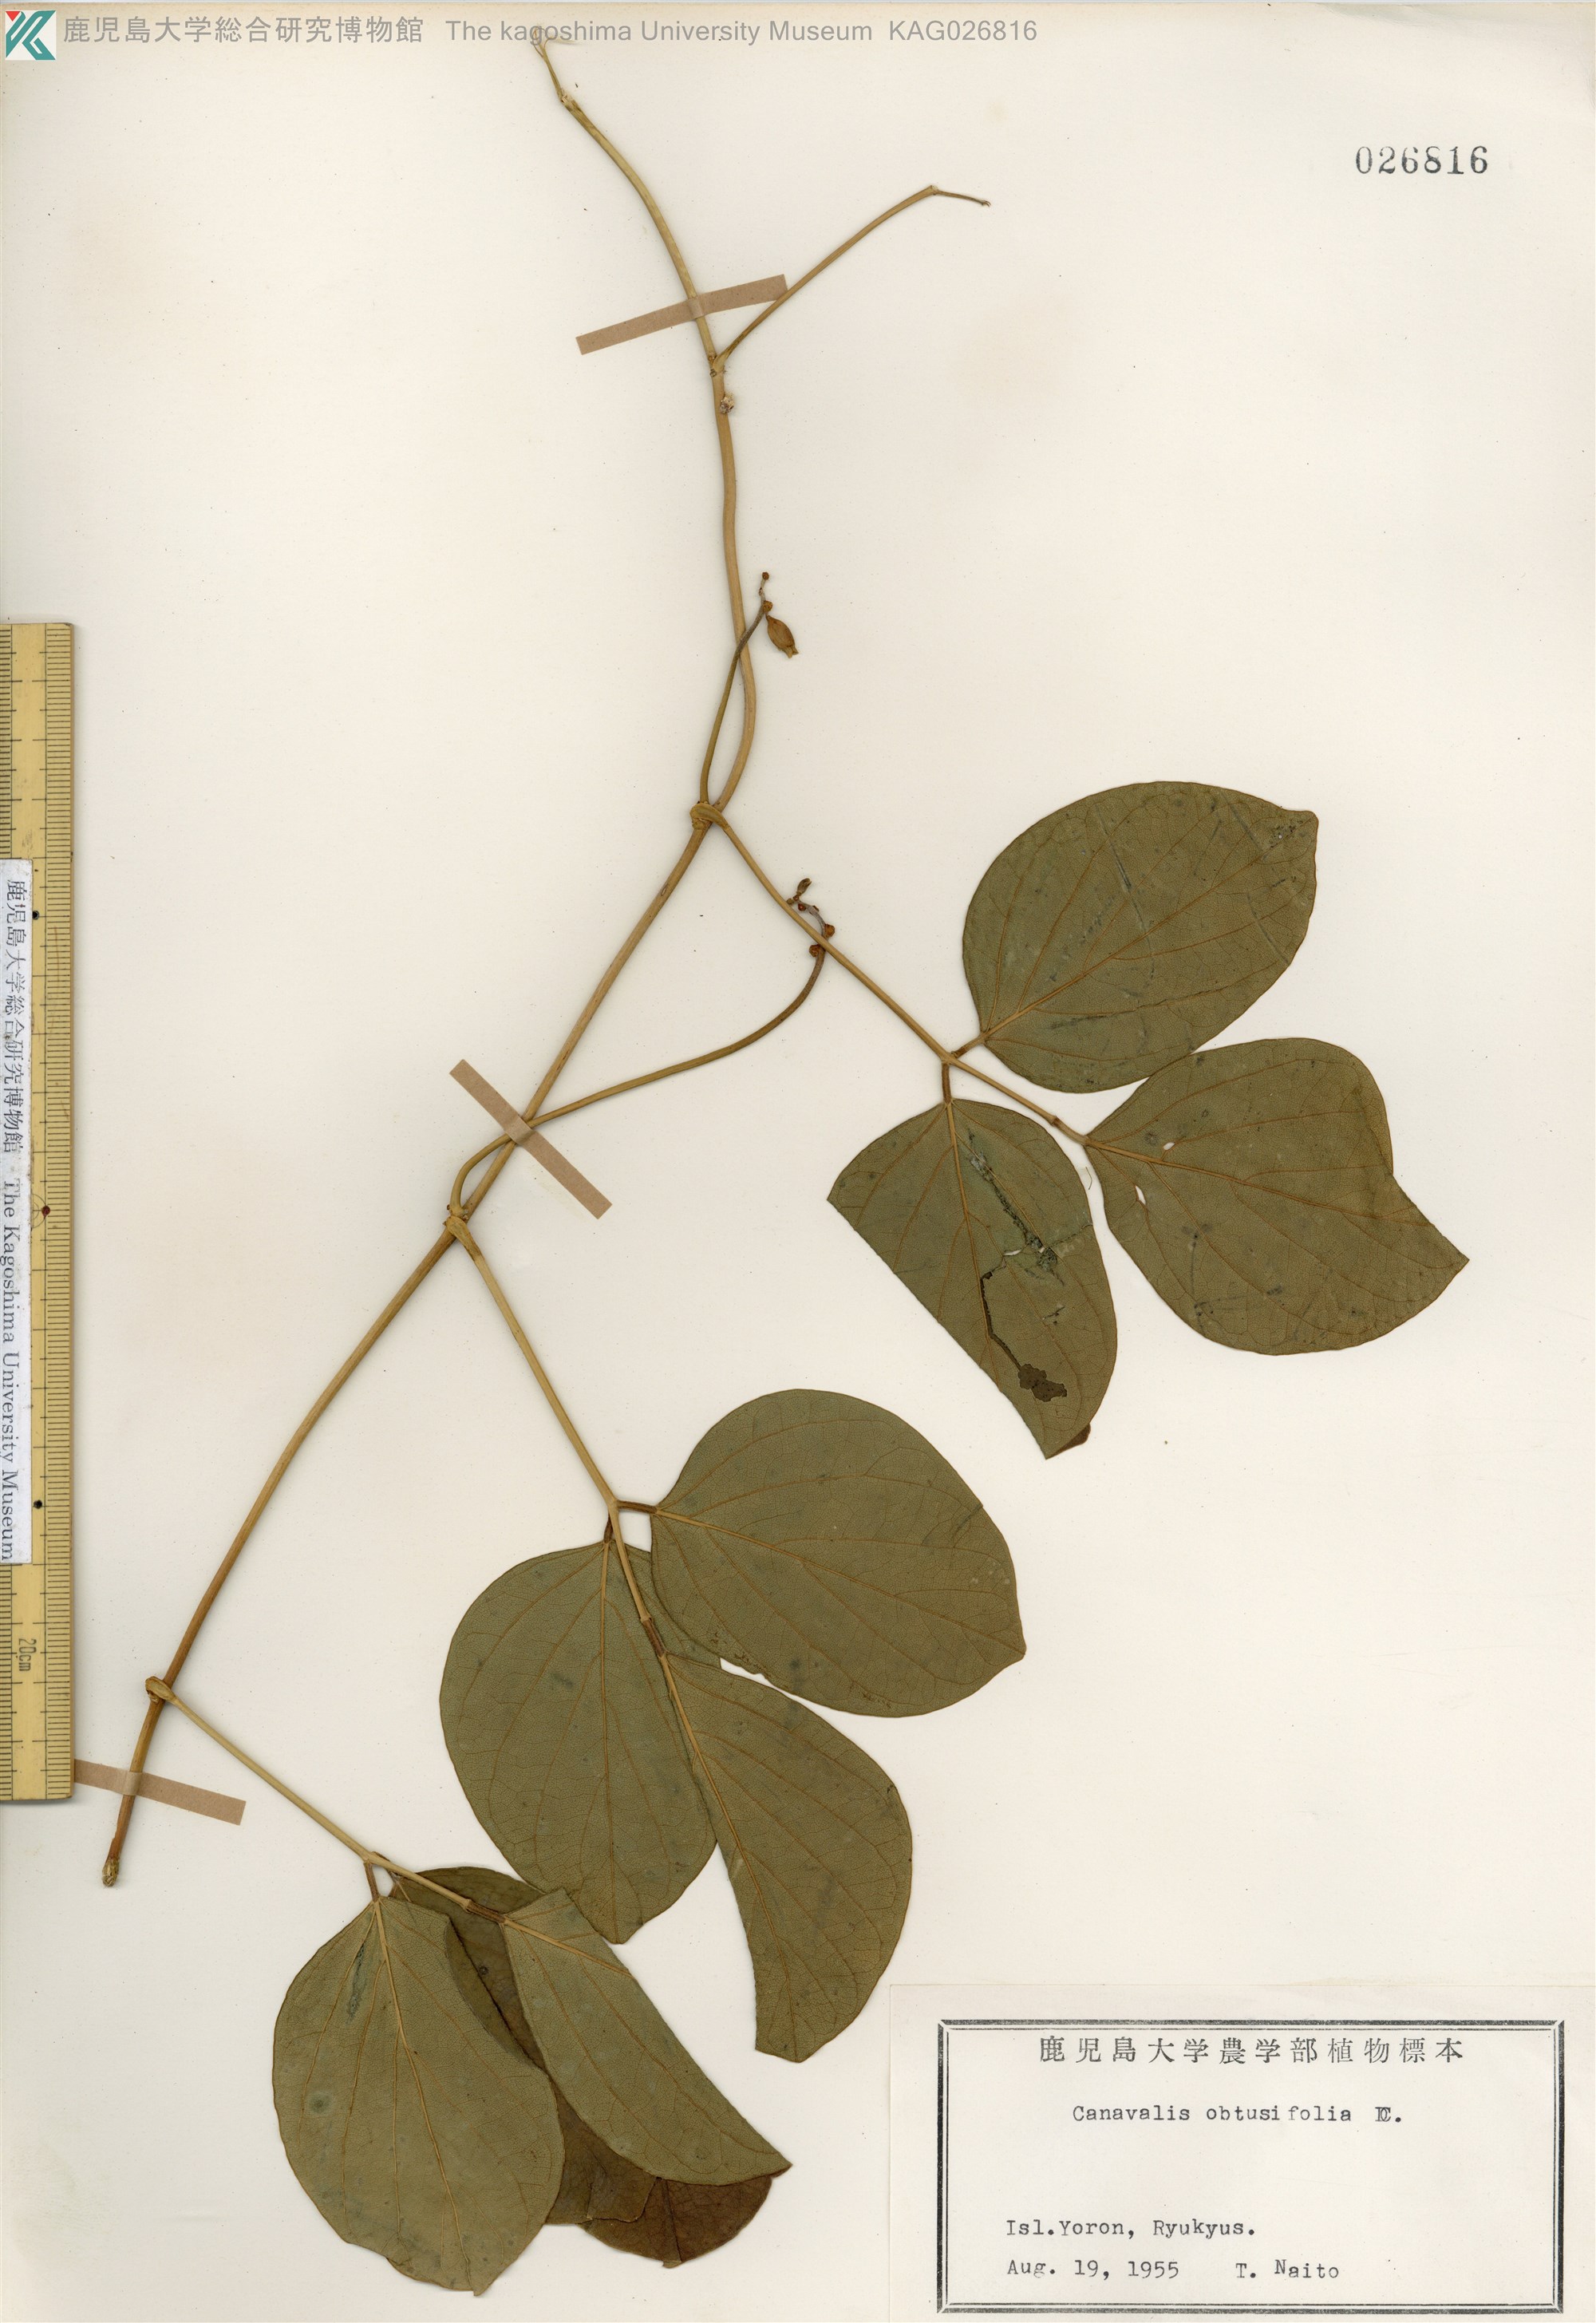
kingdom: Plantae
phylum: Tracheophyta
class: Magnoliopsida
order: Fabales
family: Fabaceae
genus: Canavalia
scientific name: Canavalia cathartica
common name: Maunaloa
